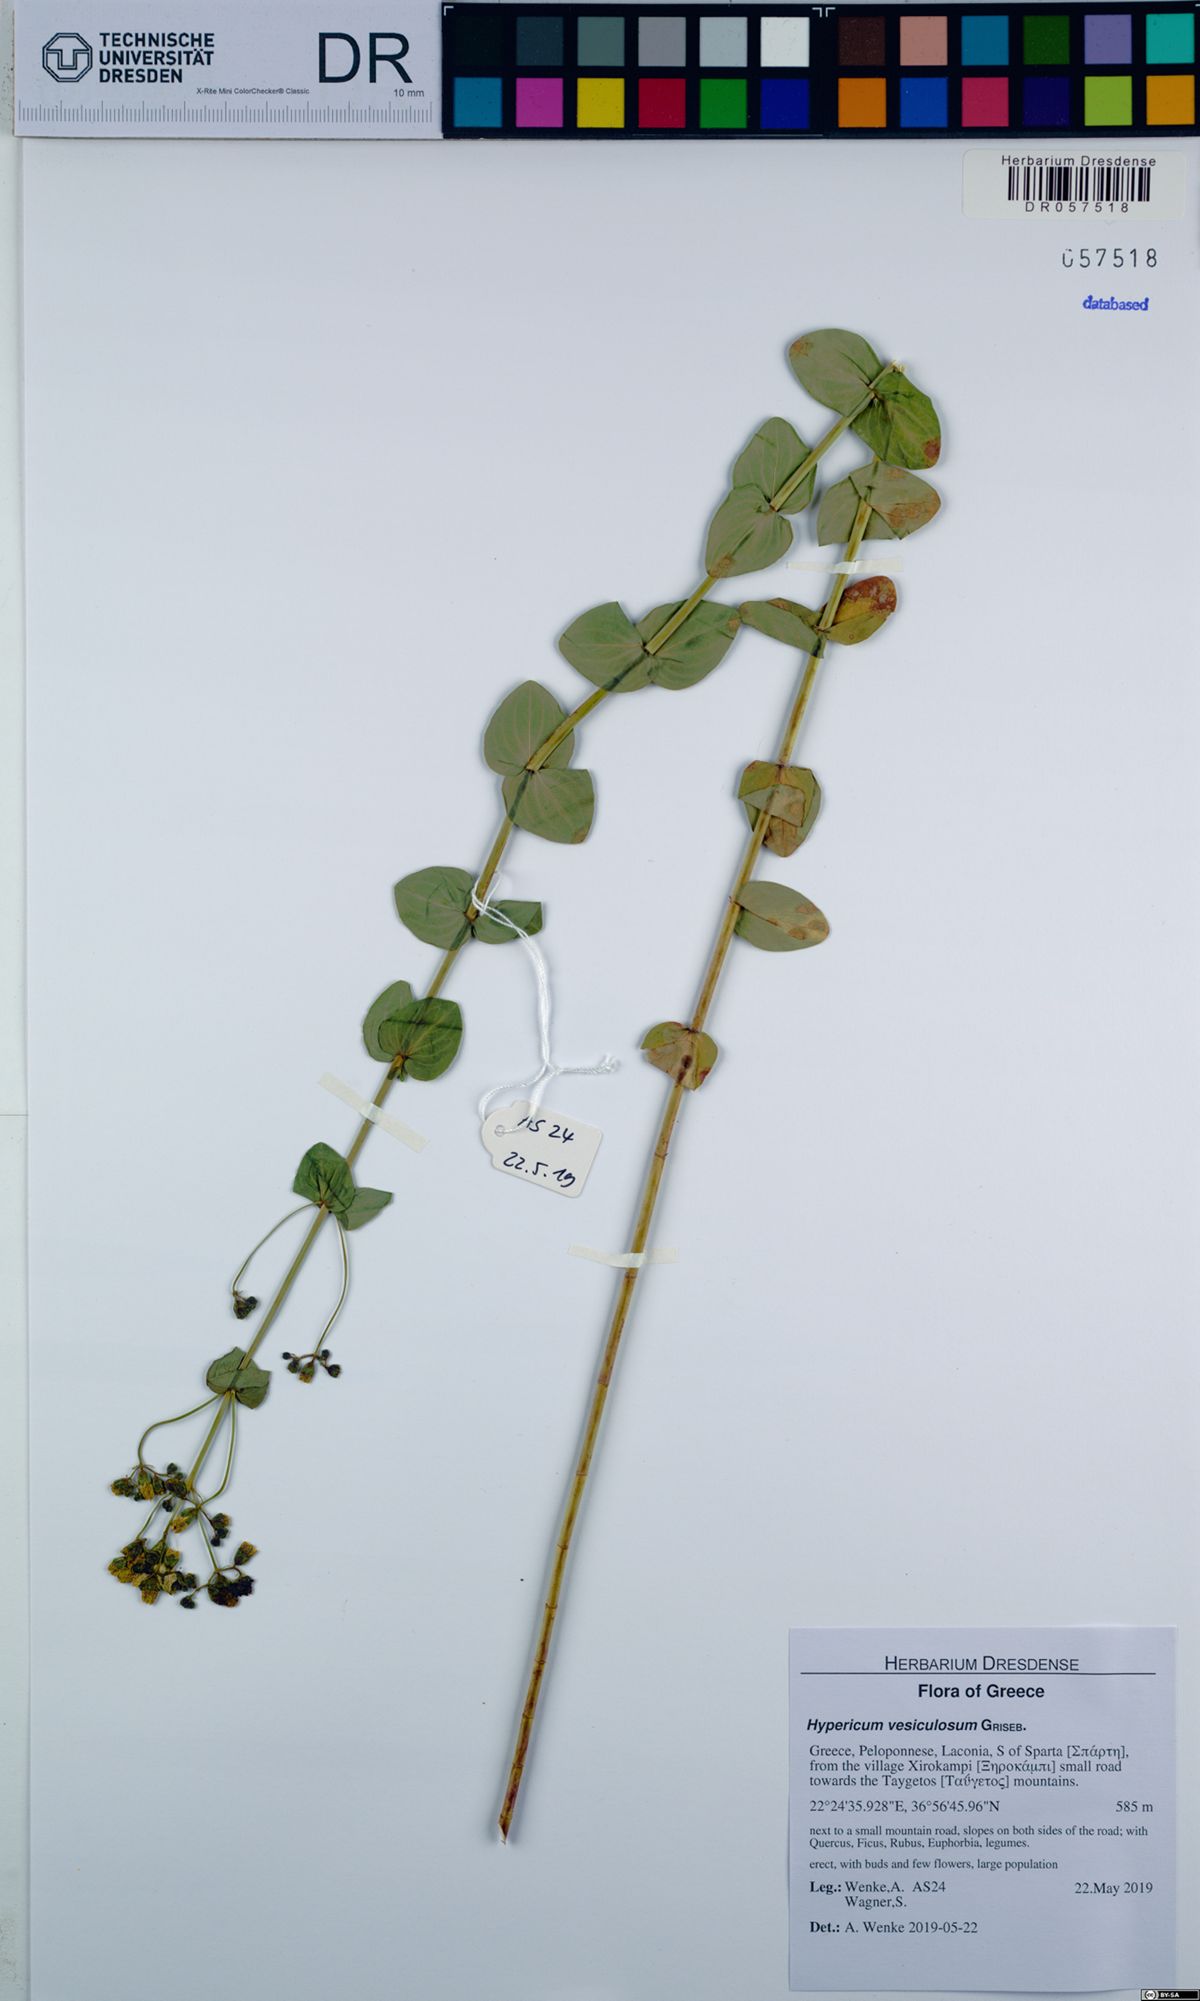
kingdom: Plantae
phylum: Tracheophyta
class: Magnoliopsida
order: Malpighiales
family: Hypericaceae
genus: Hypericum
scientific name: Hypericum vesiculosum
